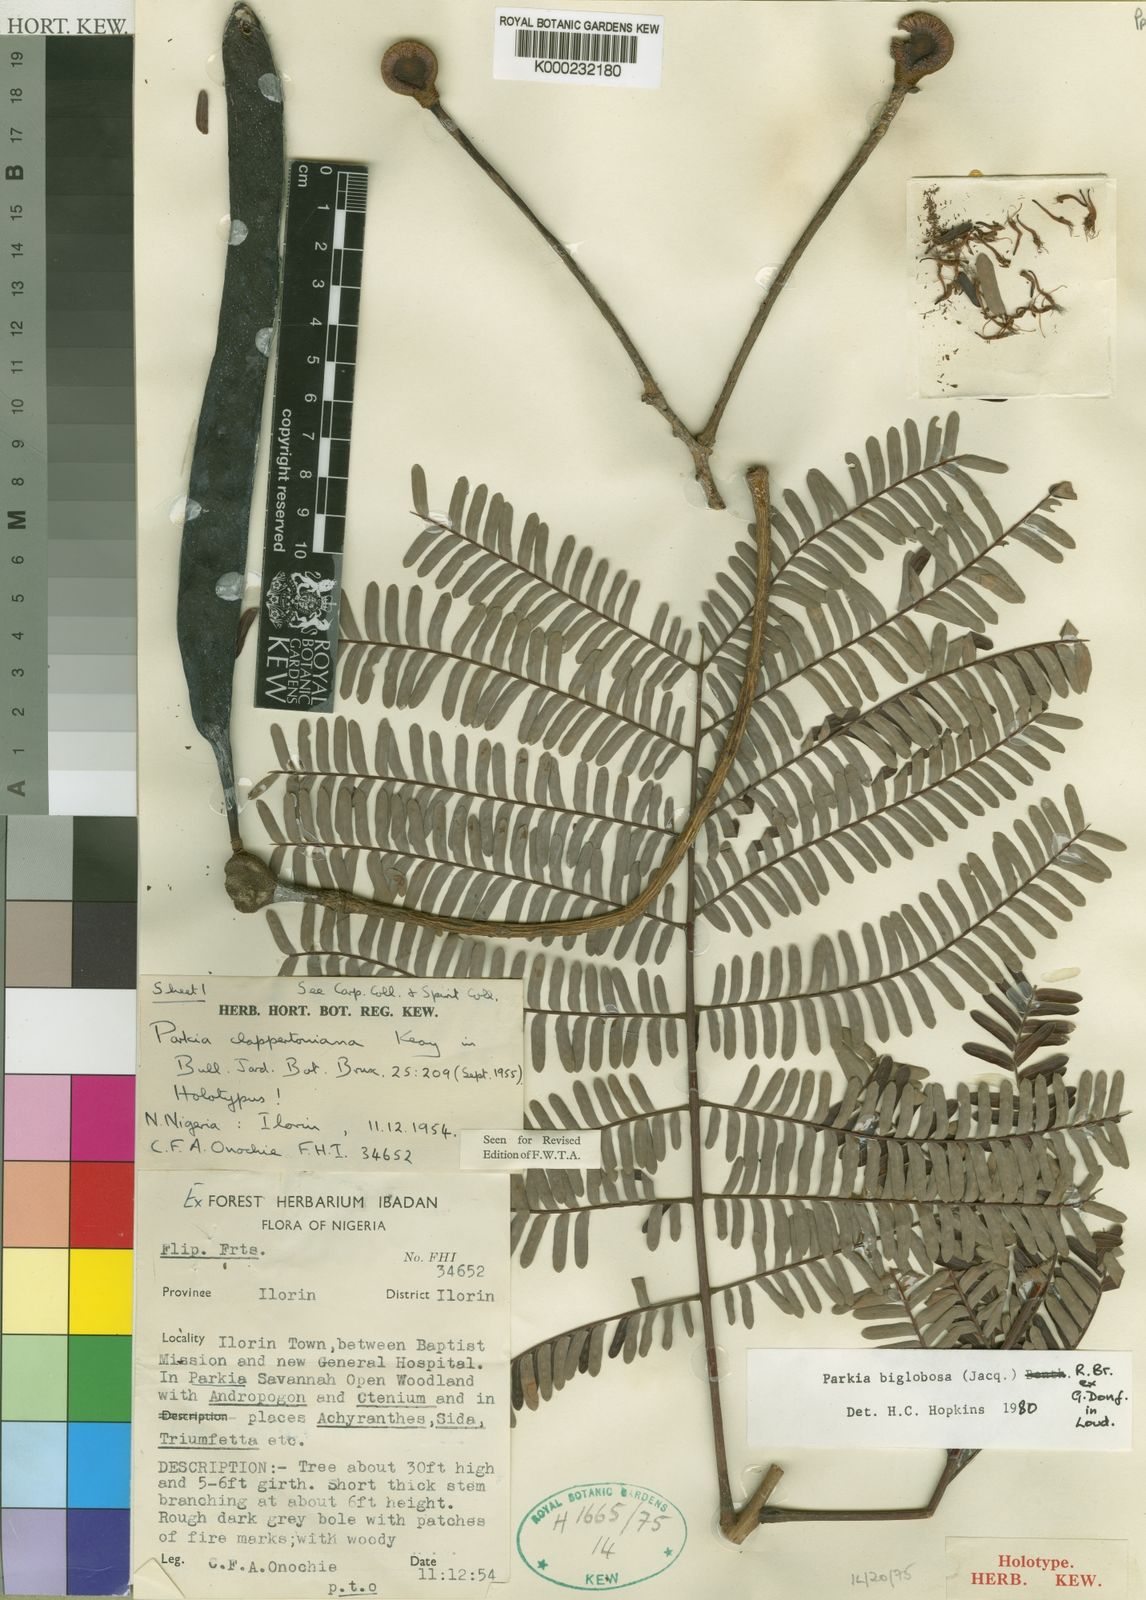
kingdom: Plantae
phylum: Tracheophyta
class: Magnoliopsida
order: Fabales
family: Fabaceae
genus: Parkia
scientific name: Parkia biglobosa
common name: African locust-bean
